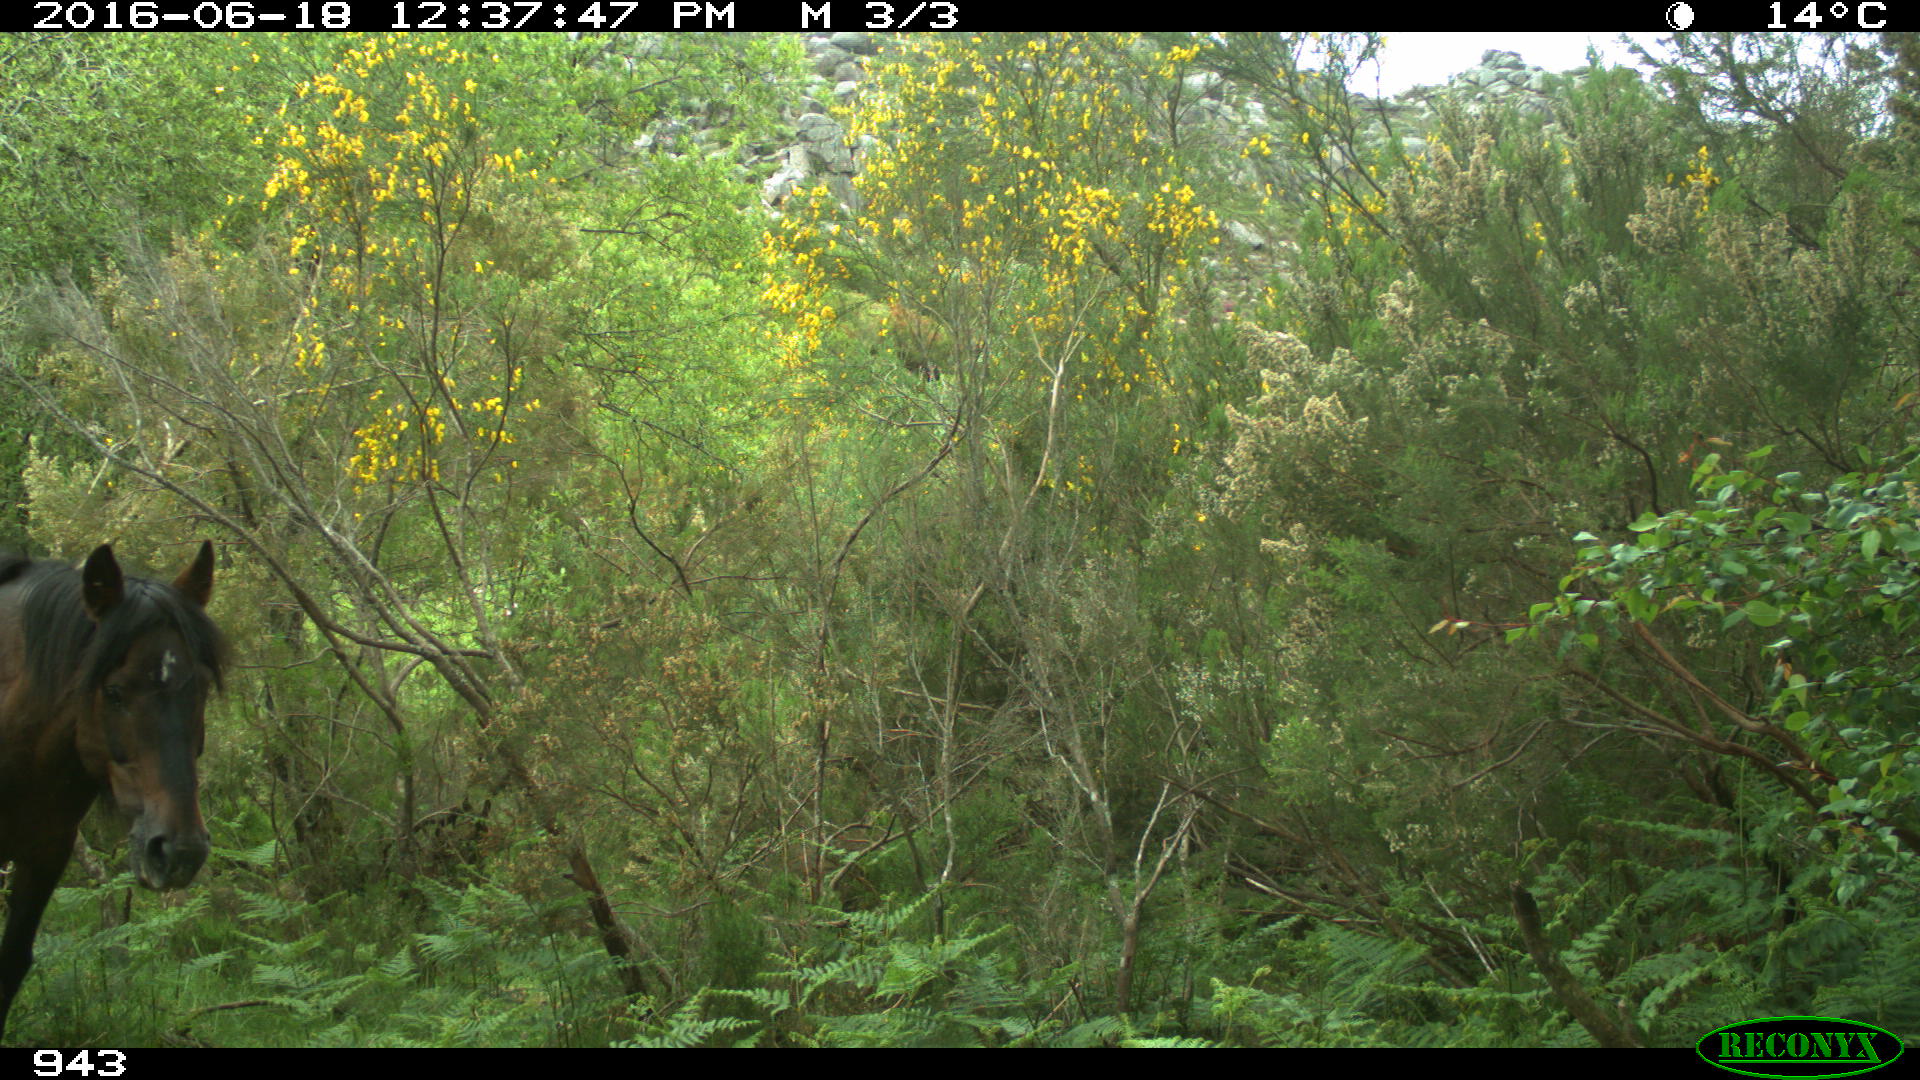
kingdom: Animalia
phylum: Chordata
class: Mammalia
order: Perissodactyla
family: Equidae
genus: Equus
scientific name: Equus caballus
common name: Horse
